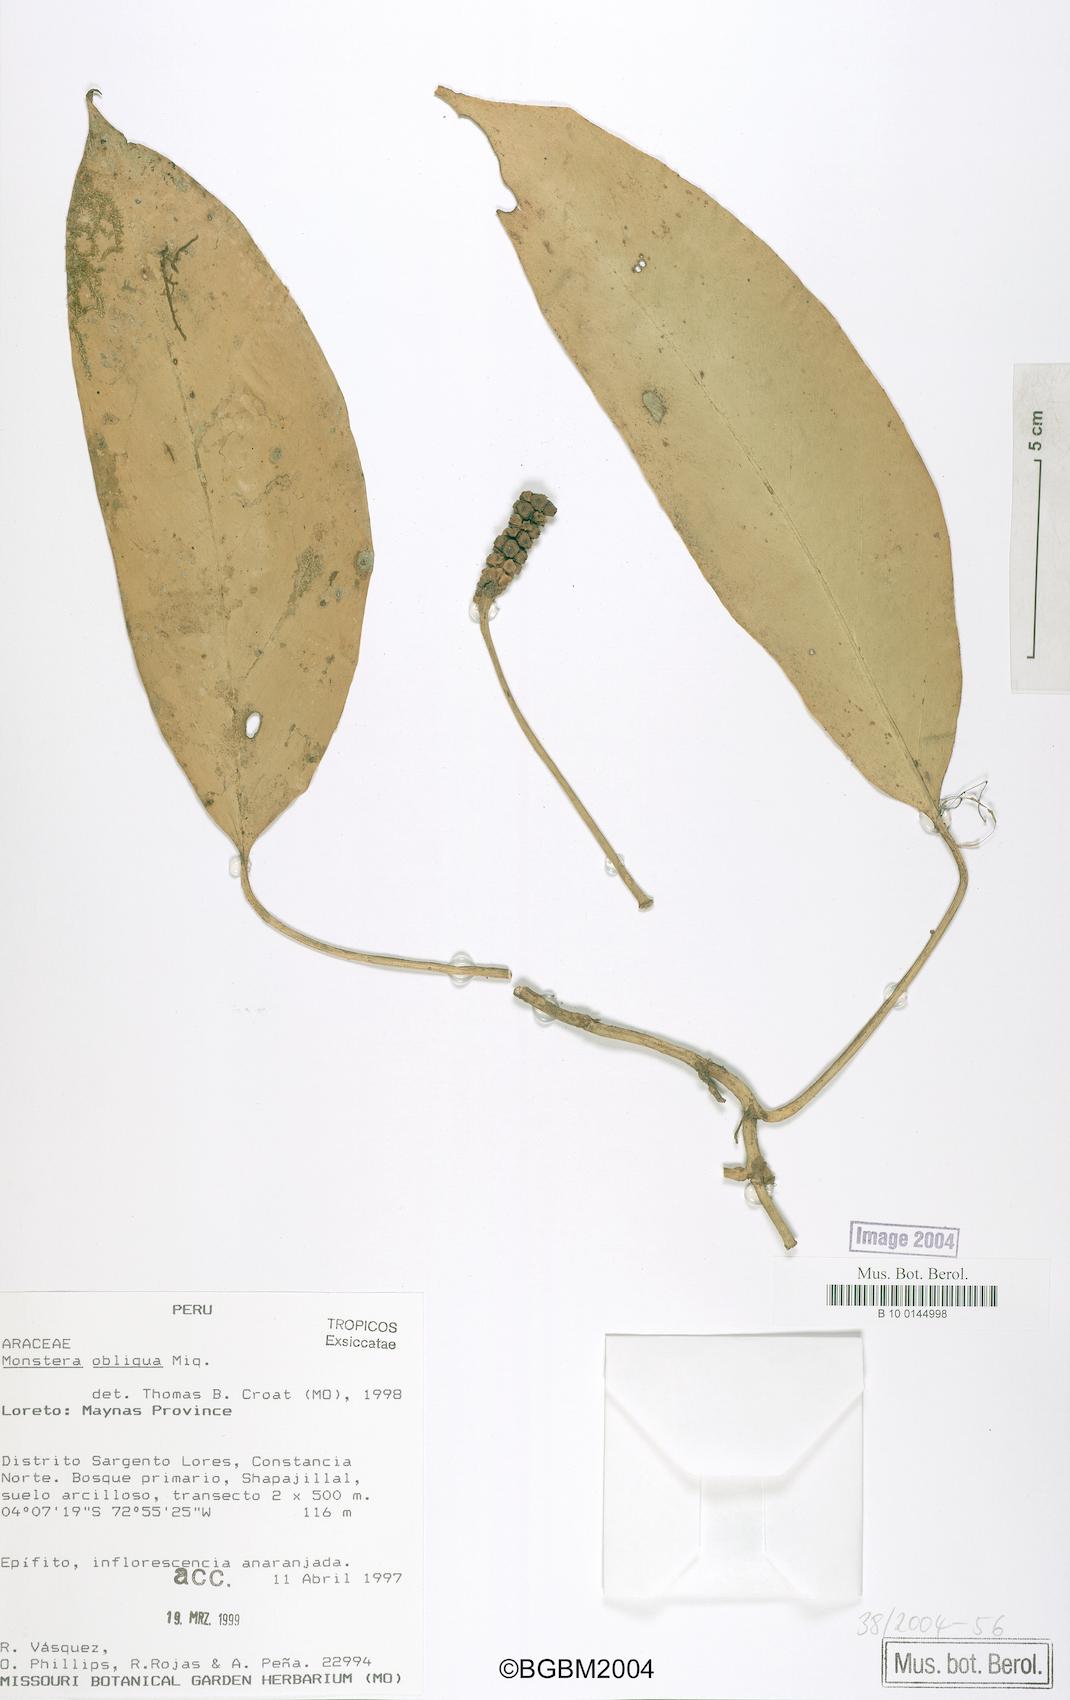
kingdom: Plantae
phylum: Tracheophyta
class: Liliopsida
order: Alismatales
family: Araceae
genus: Monstera
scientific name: Monstera obliqua
